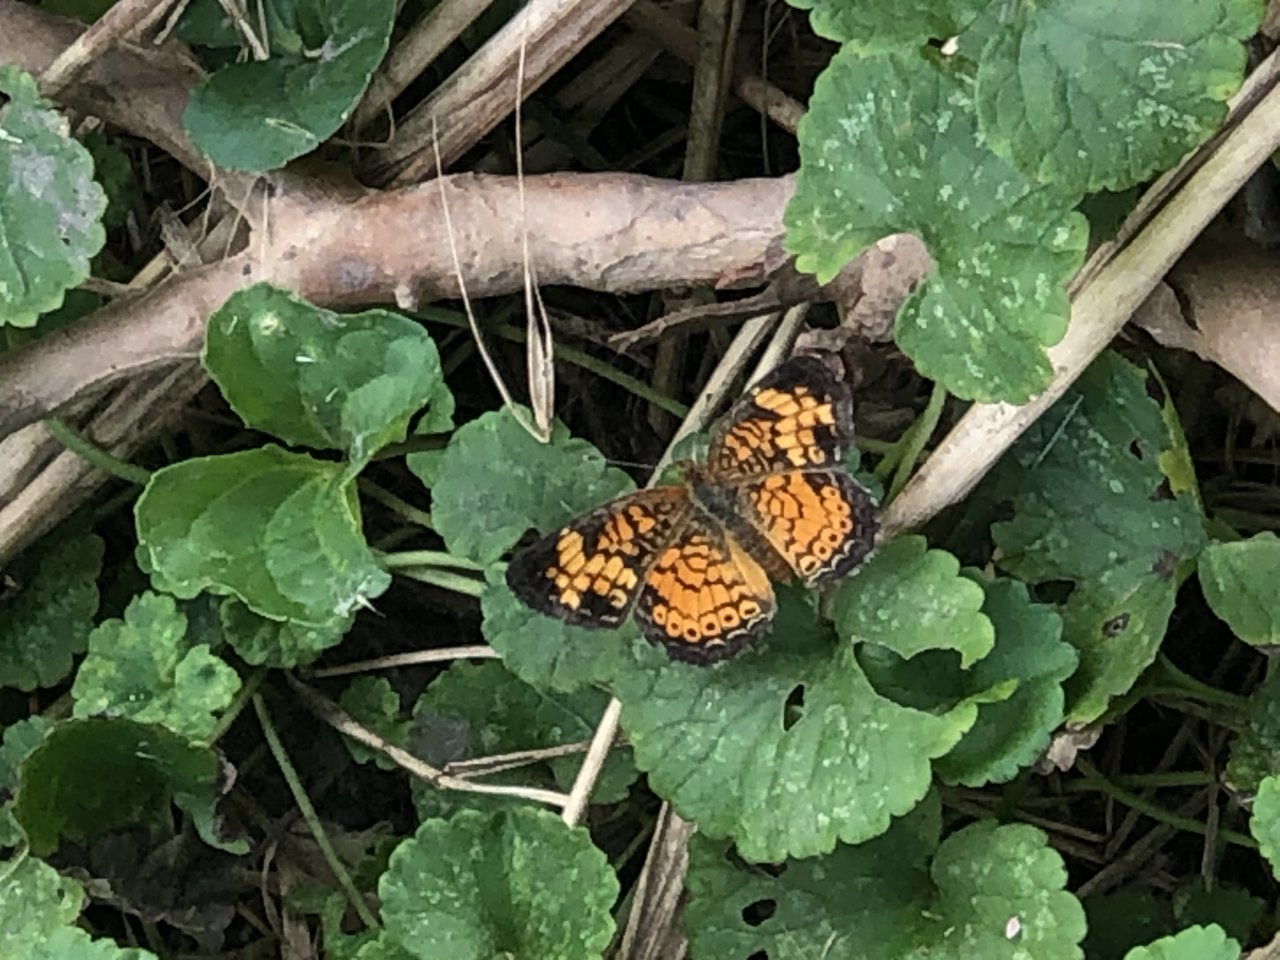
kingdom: Animalia
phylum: Arthropoda
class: Insecta
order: Lepidoptera
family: Nymphalidae
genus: Phyciodes
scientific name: Phyciodes tharos
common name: Pearl Crescent
